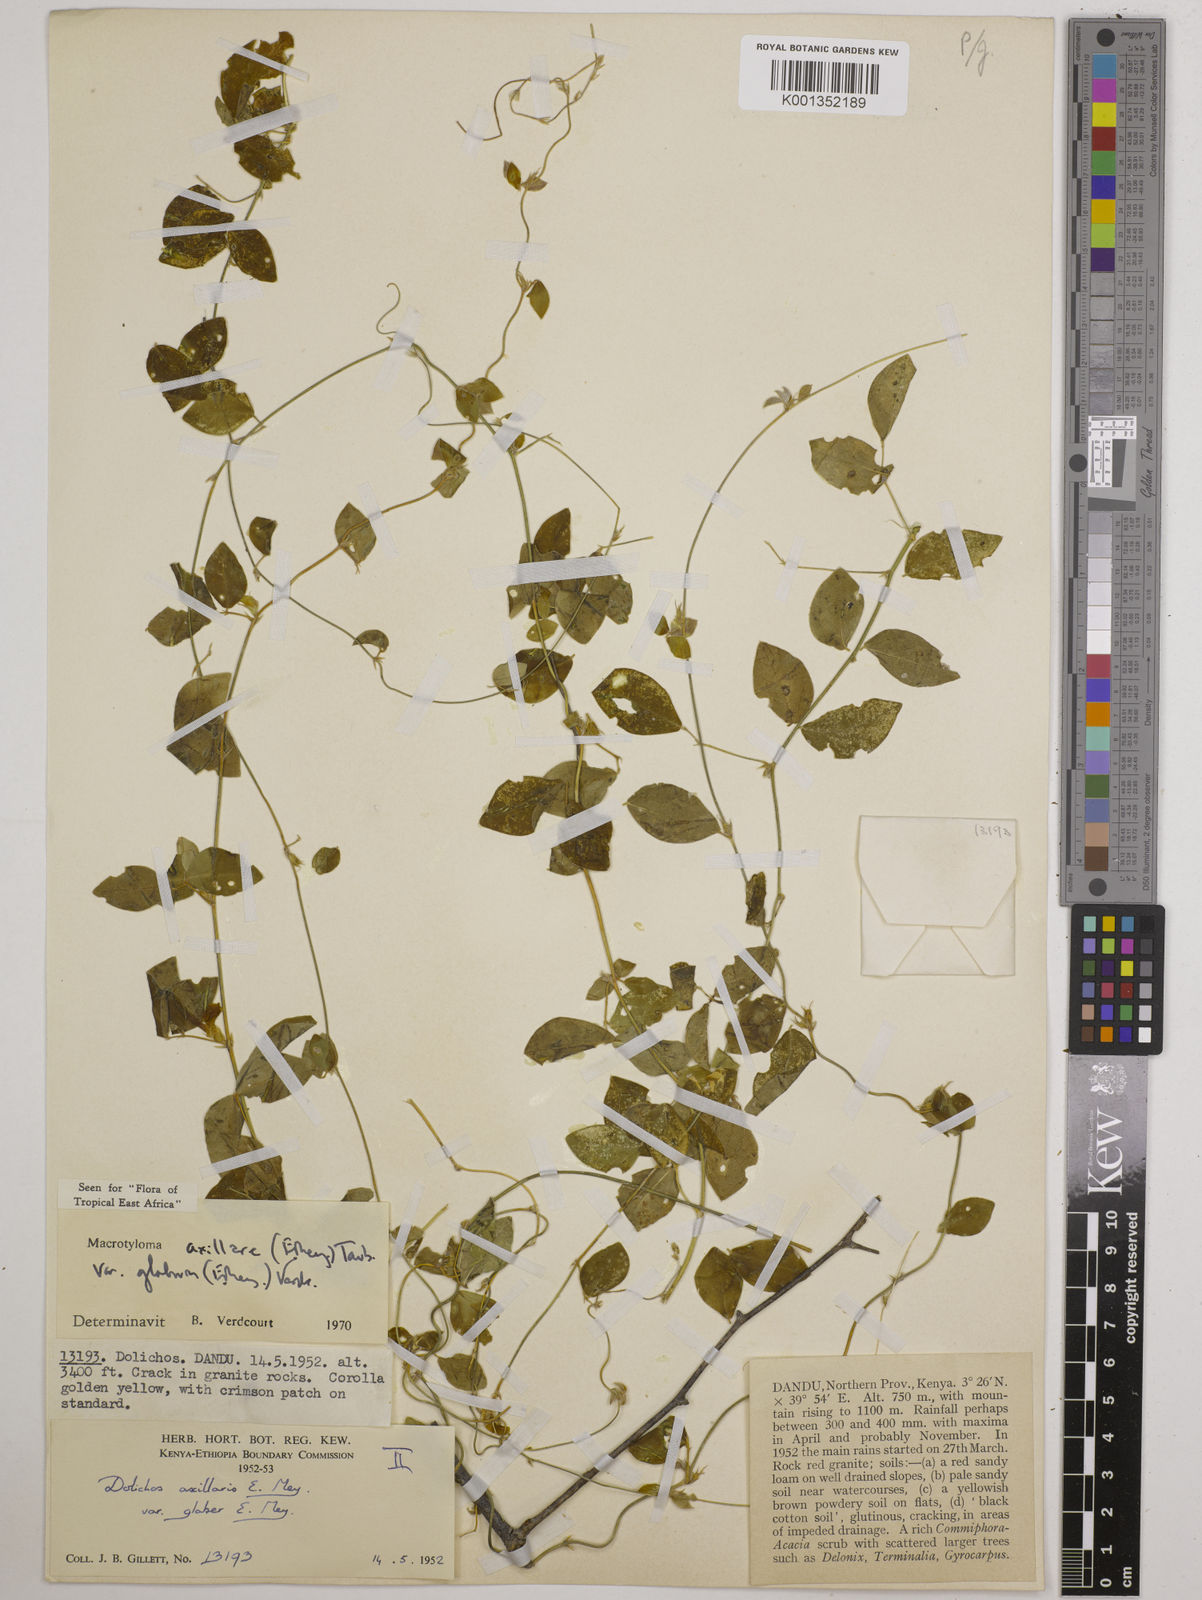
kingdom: Plantae
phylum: Tracheophyta
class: Magnoliopsida
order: Fabales
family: Fabaceae
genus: Macrotyloma
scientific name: Macrotyloma
